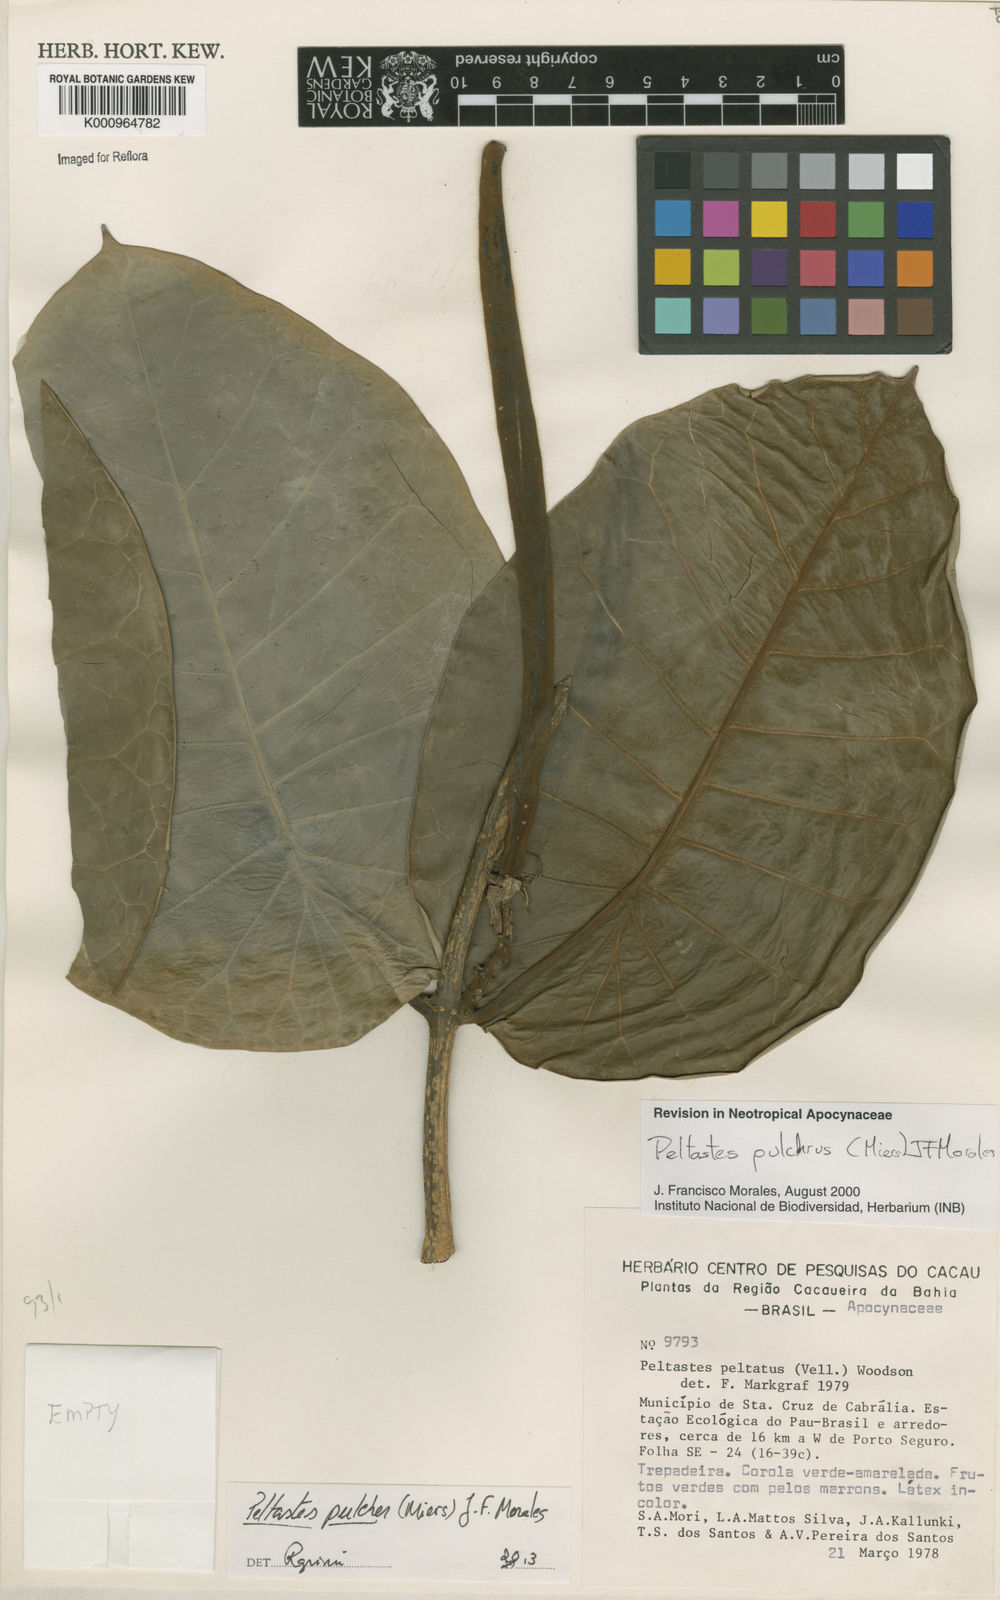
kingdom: Plantae
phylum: Tracheophyta
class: Magnoliopsida
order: Gentianales
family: Apocynaceae
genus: Macropharynx
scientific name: Macropharynx pulchra
